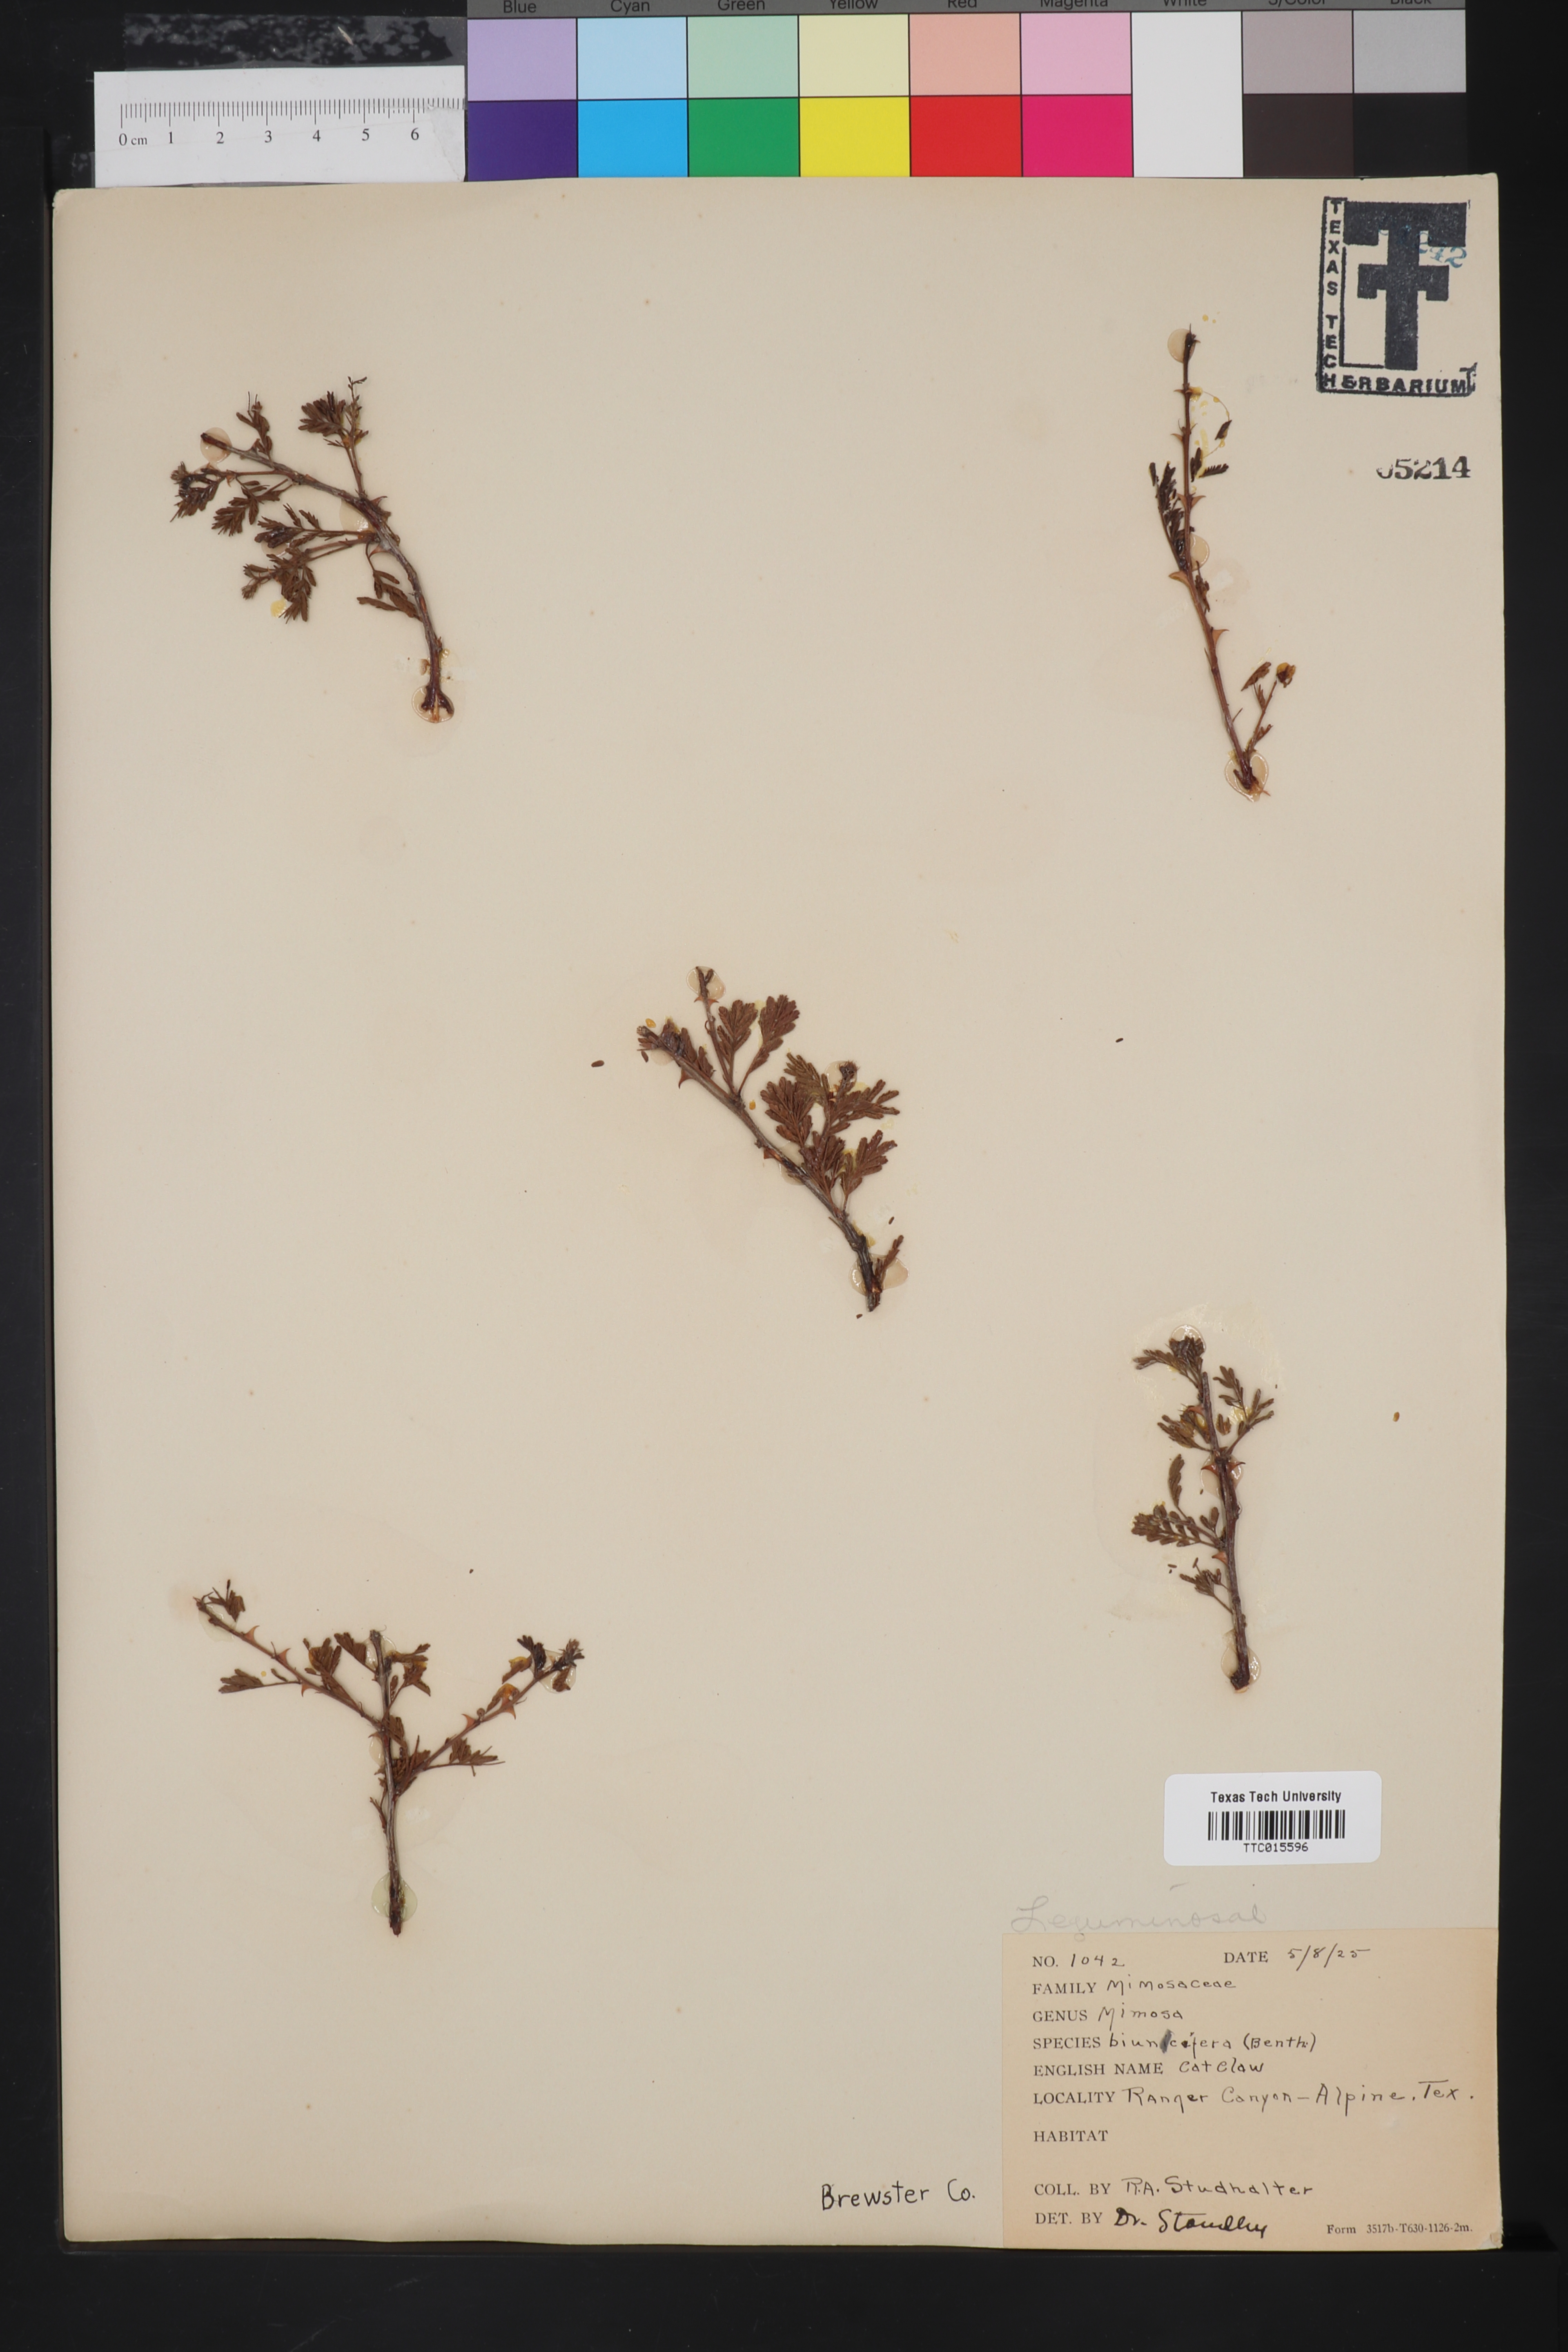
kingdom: Plantae
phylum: Tracheophyta
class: Magnoliopsida
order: Fabales
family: Fabaceae
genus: Mimosa
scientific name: Mimosa biuncifera
